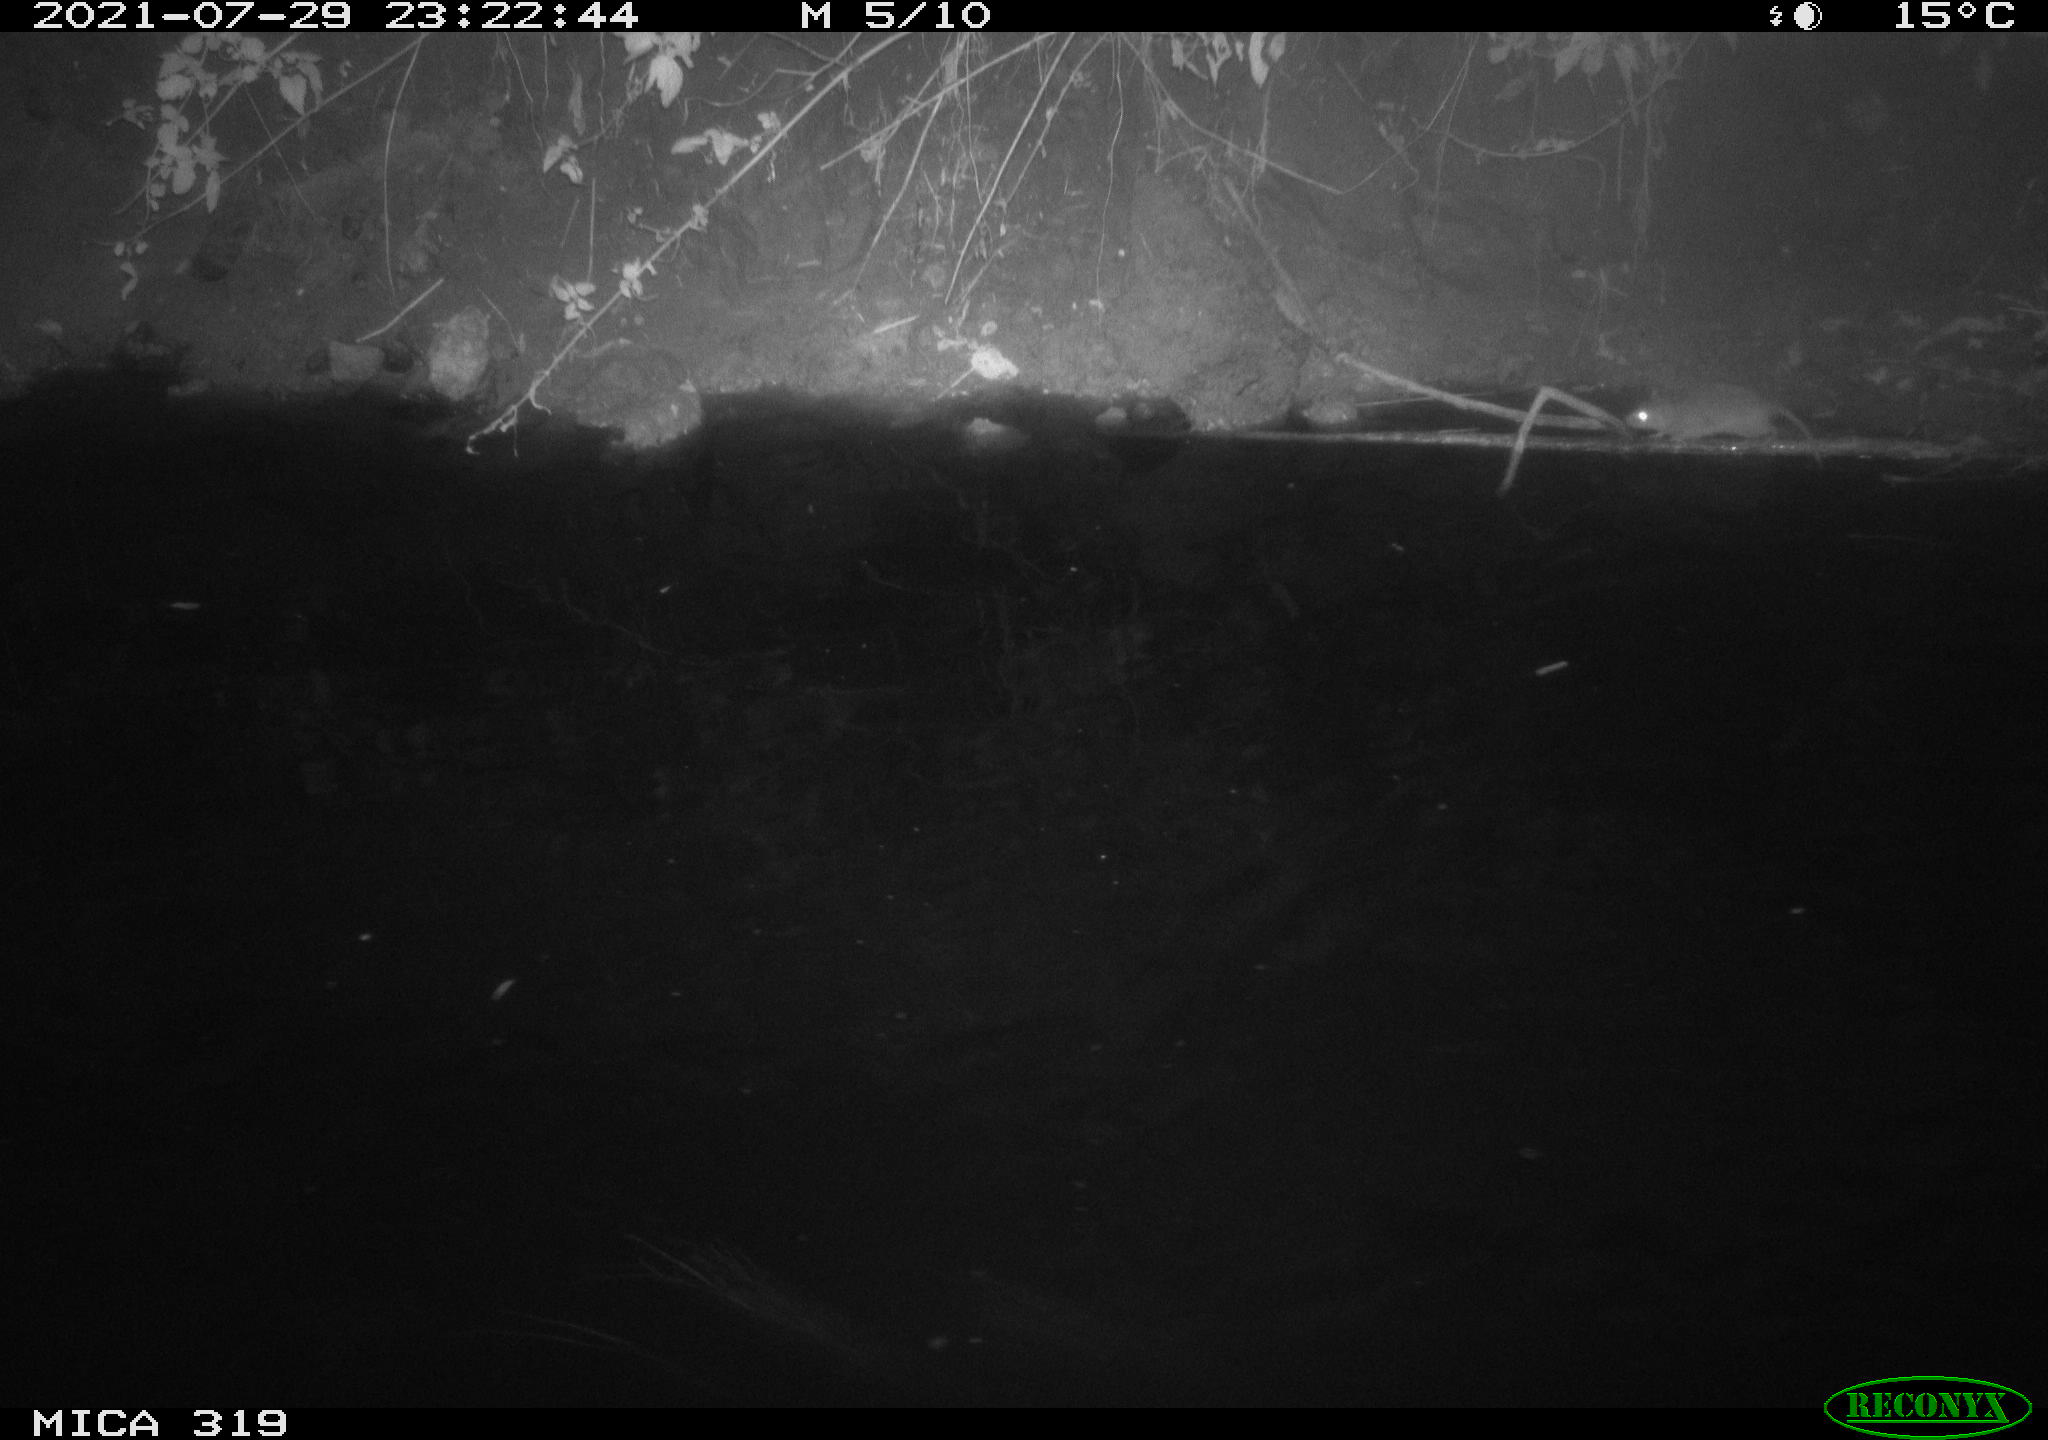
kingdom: Animalia
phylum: Chordata
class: Mammalia
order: Rodentia
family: Muridae
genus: Rattus
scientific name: Rattus norvegicus
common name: Brown rat
